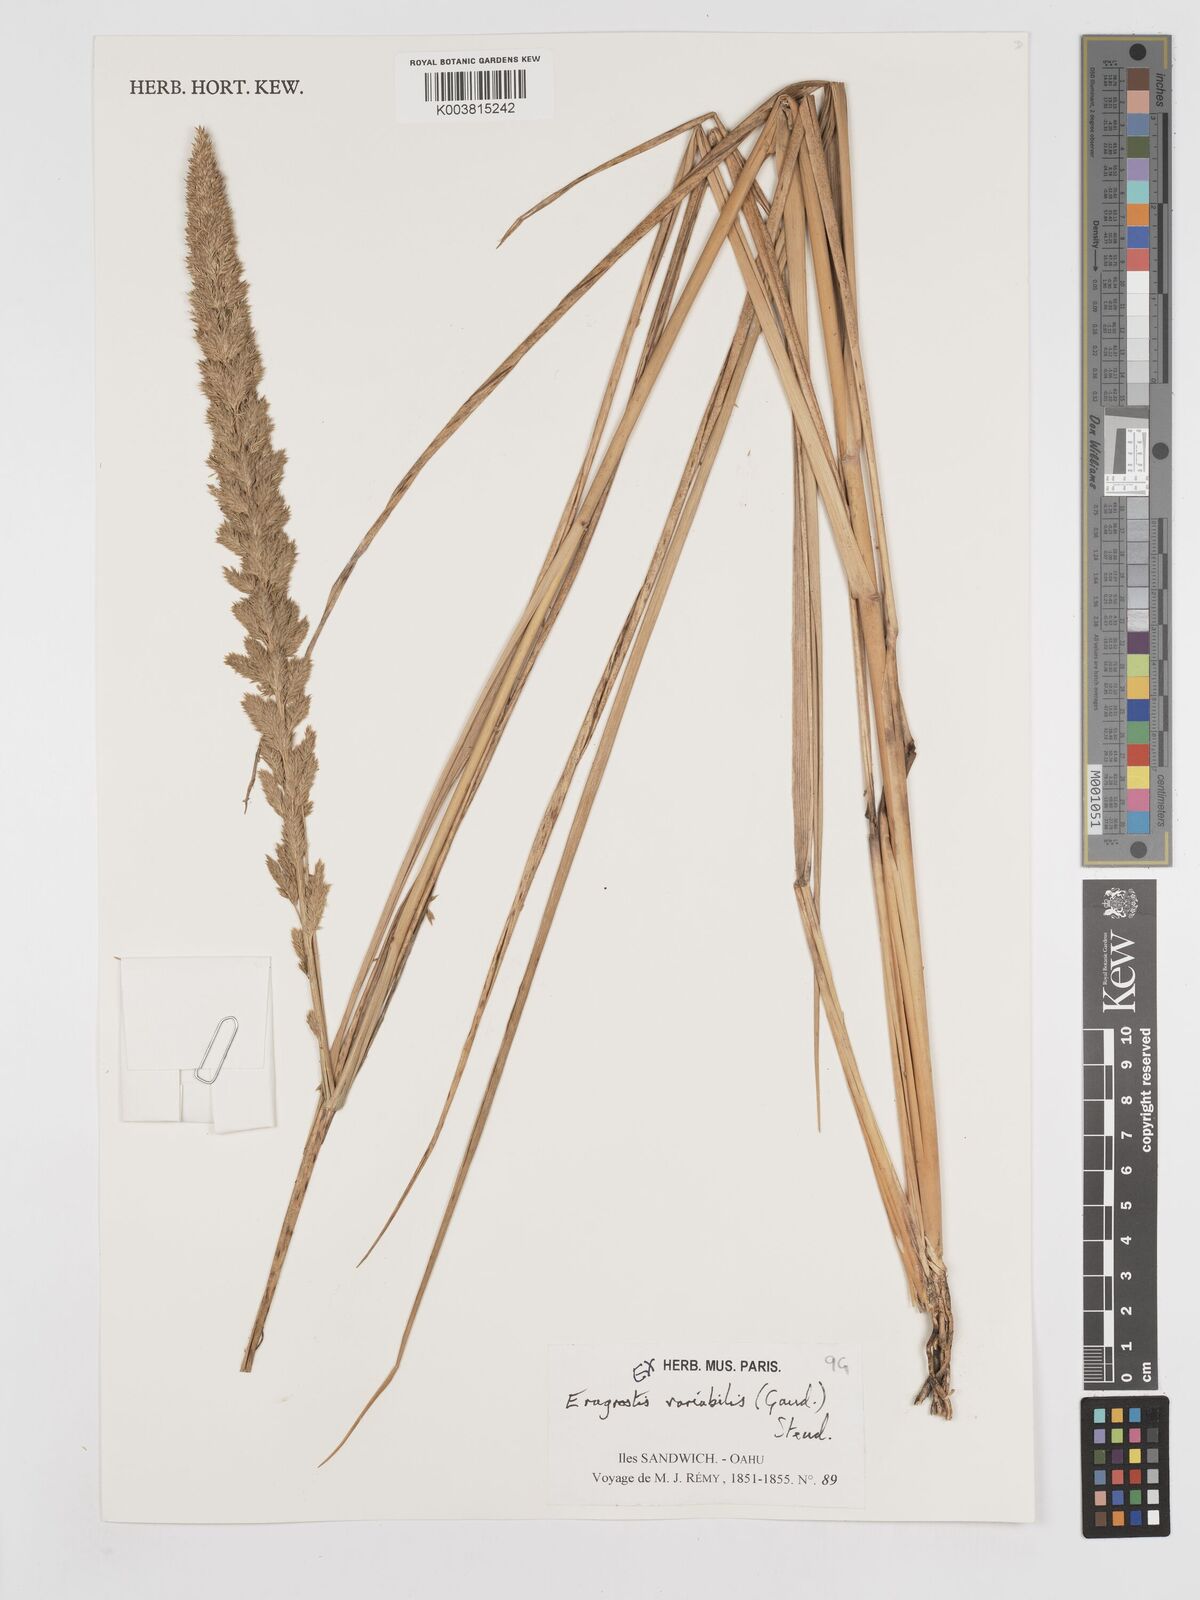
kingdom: Plantae
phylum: Tracheophyta
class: Liliopsida
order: Poales
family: Poaceae
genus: Eragrostis
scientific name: Eragrostis variabilis
